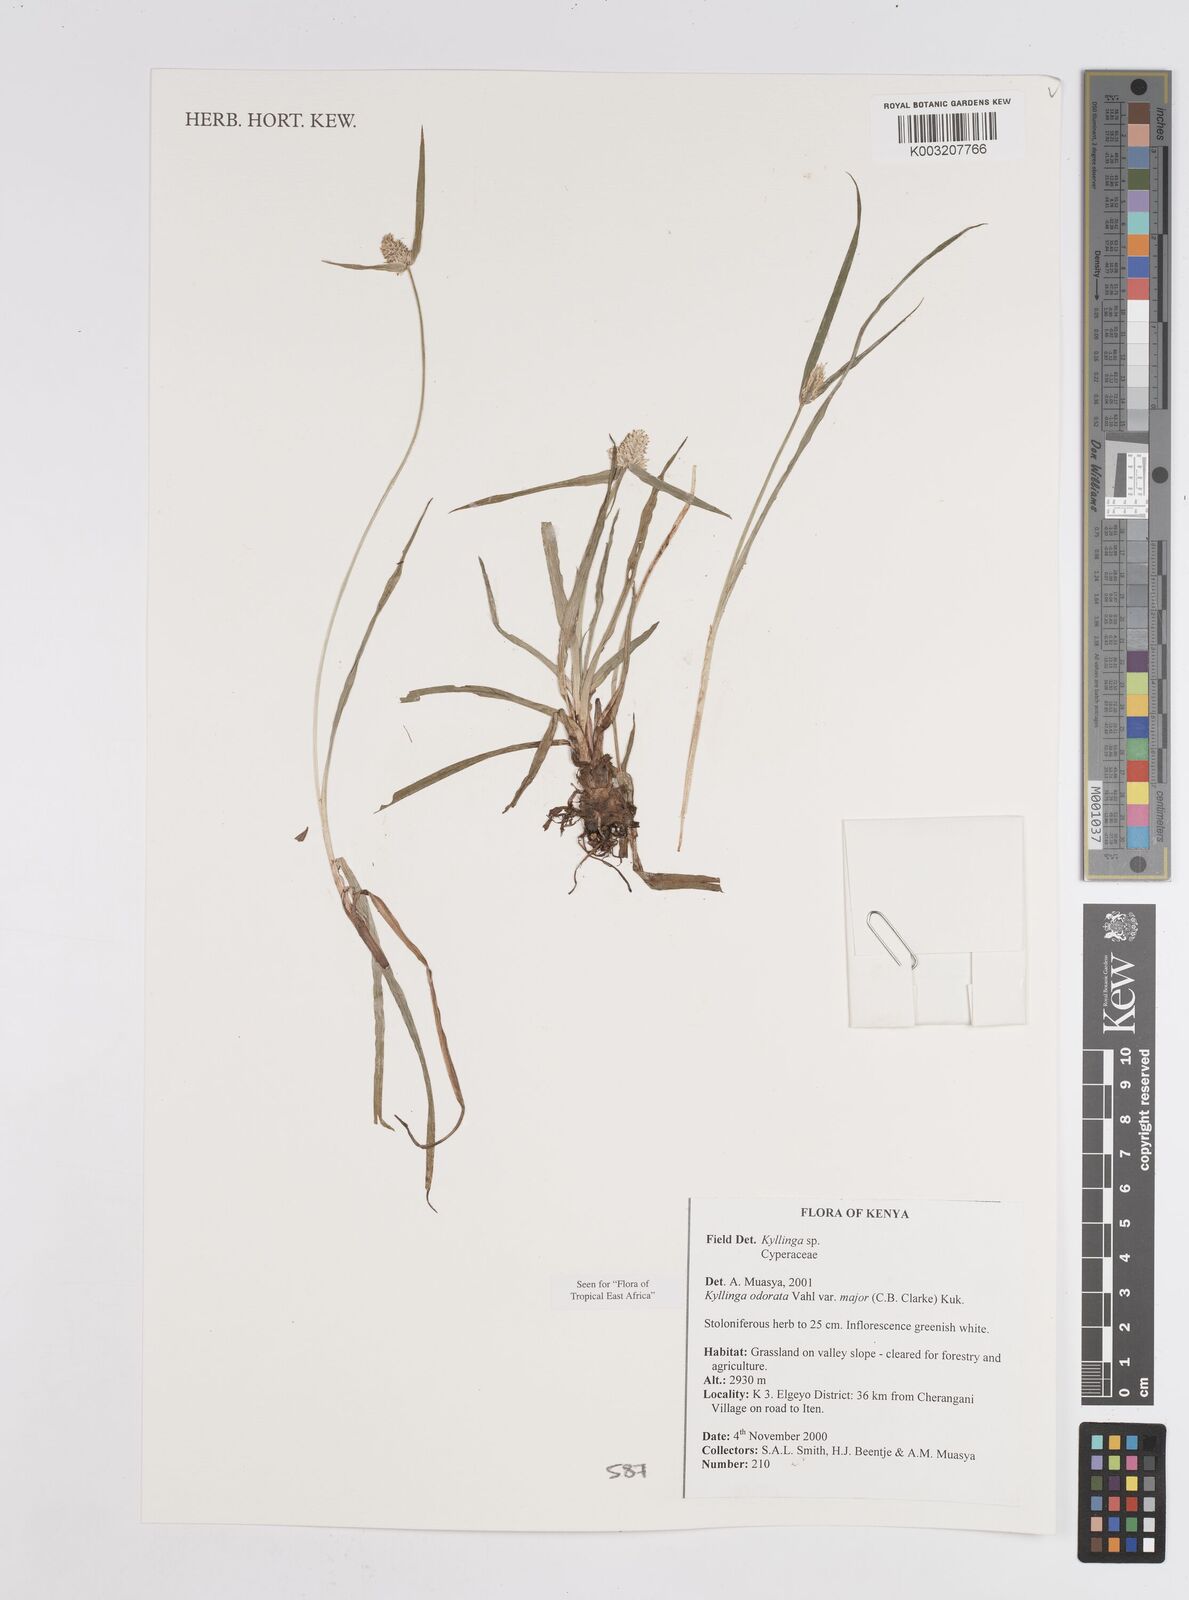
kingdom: Plantae
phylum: Tracheophyta
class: Liliopsida
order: Poales
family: Cyperaceae
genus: Cyperus
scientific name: Cyperus
